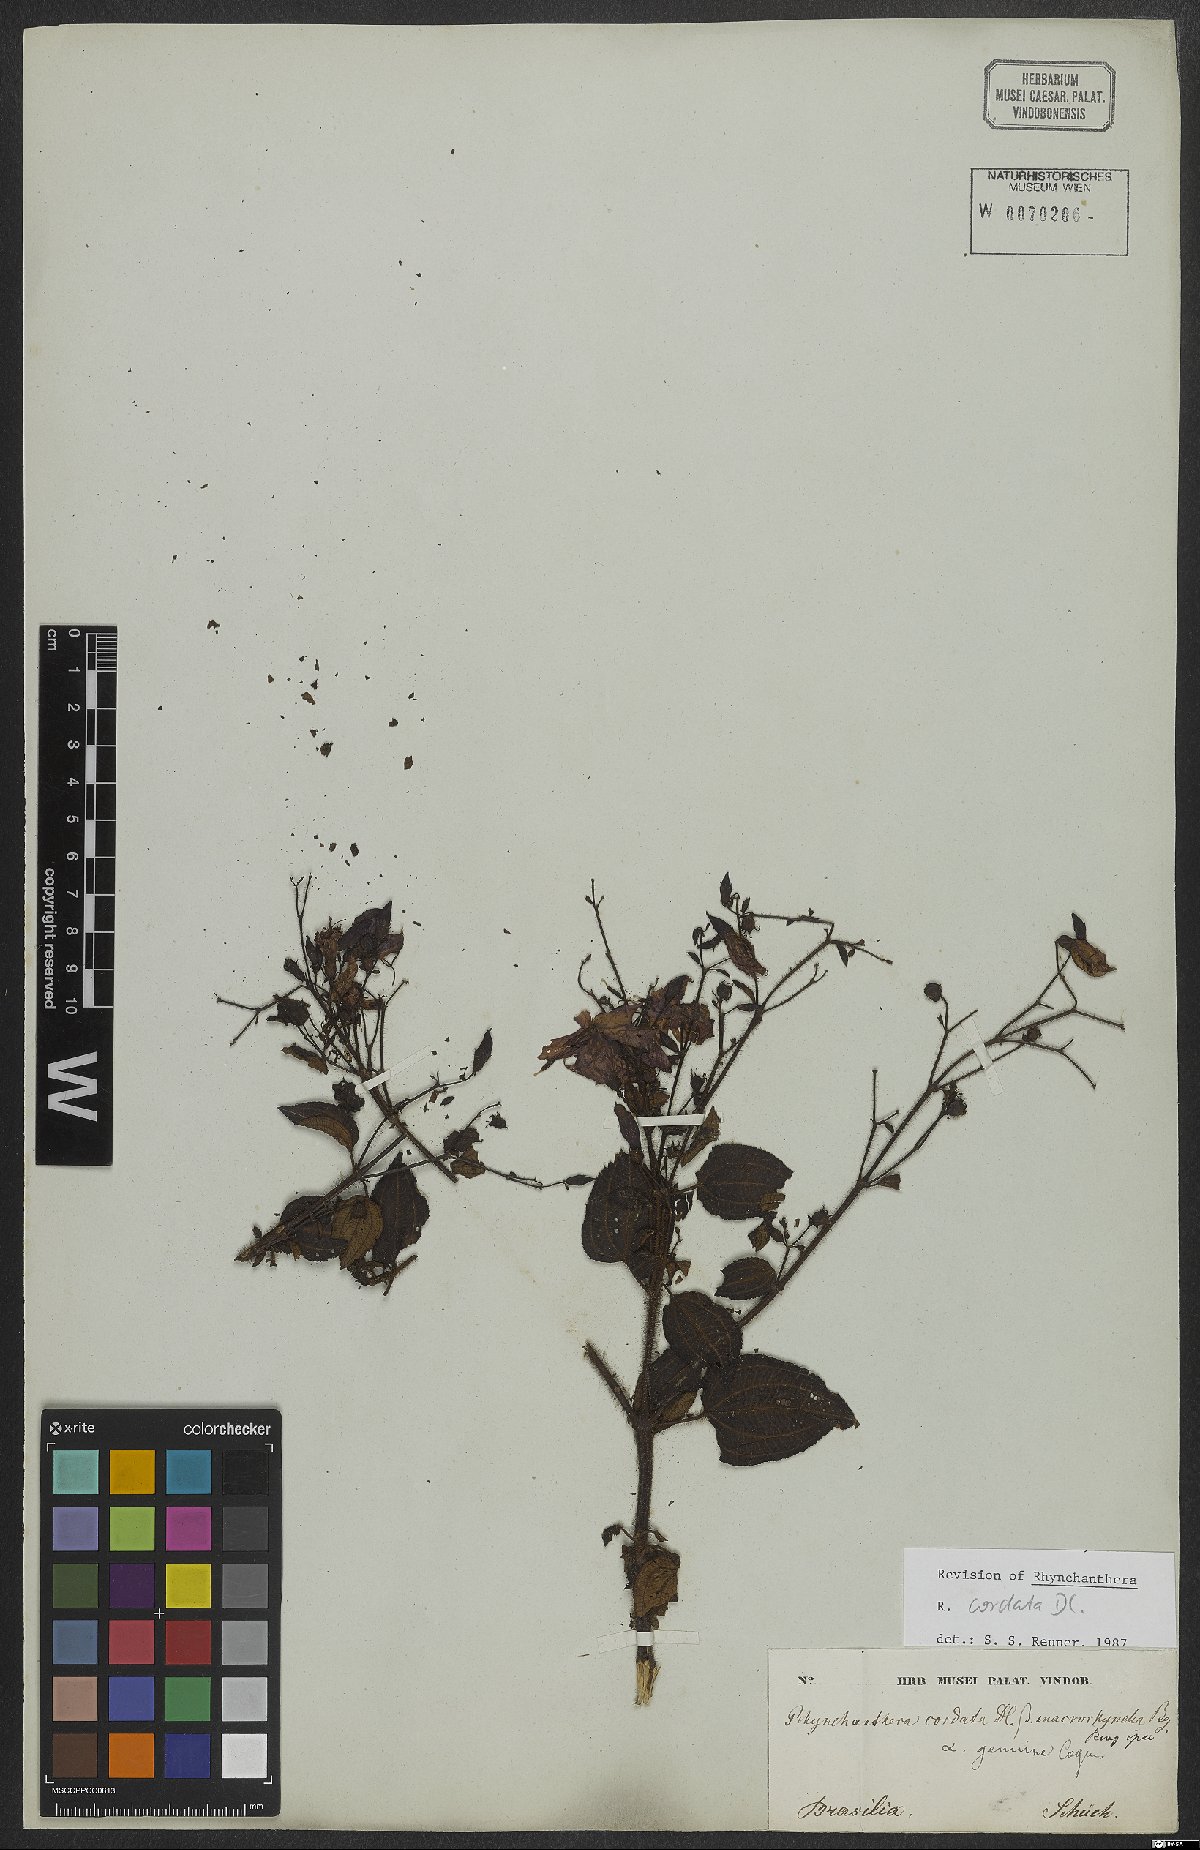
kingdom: Plantae
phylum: Tracheophyta
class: Magnoliopsida
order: Myrtales
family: Melastomataceae
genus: Rhynchanthera
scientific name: Rhynchanthera cordata
